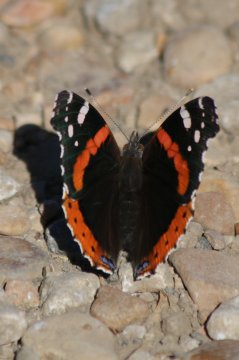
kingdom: Animalia
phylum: Arthropoda
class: Insecta
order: Lepidoptera
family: Nymphalidae
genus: Vanessa
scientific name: Vanessa atalanta
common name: Red Admiral
